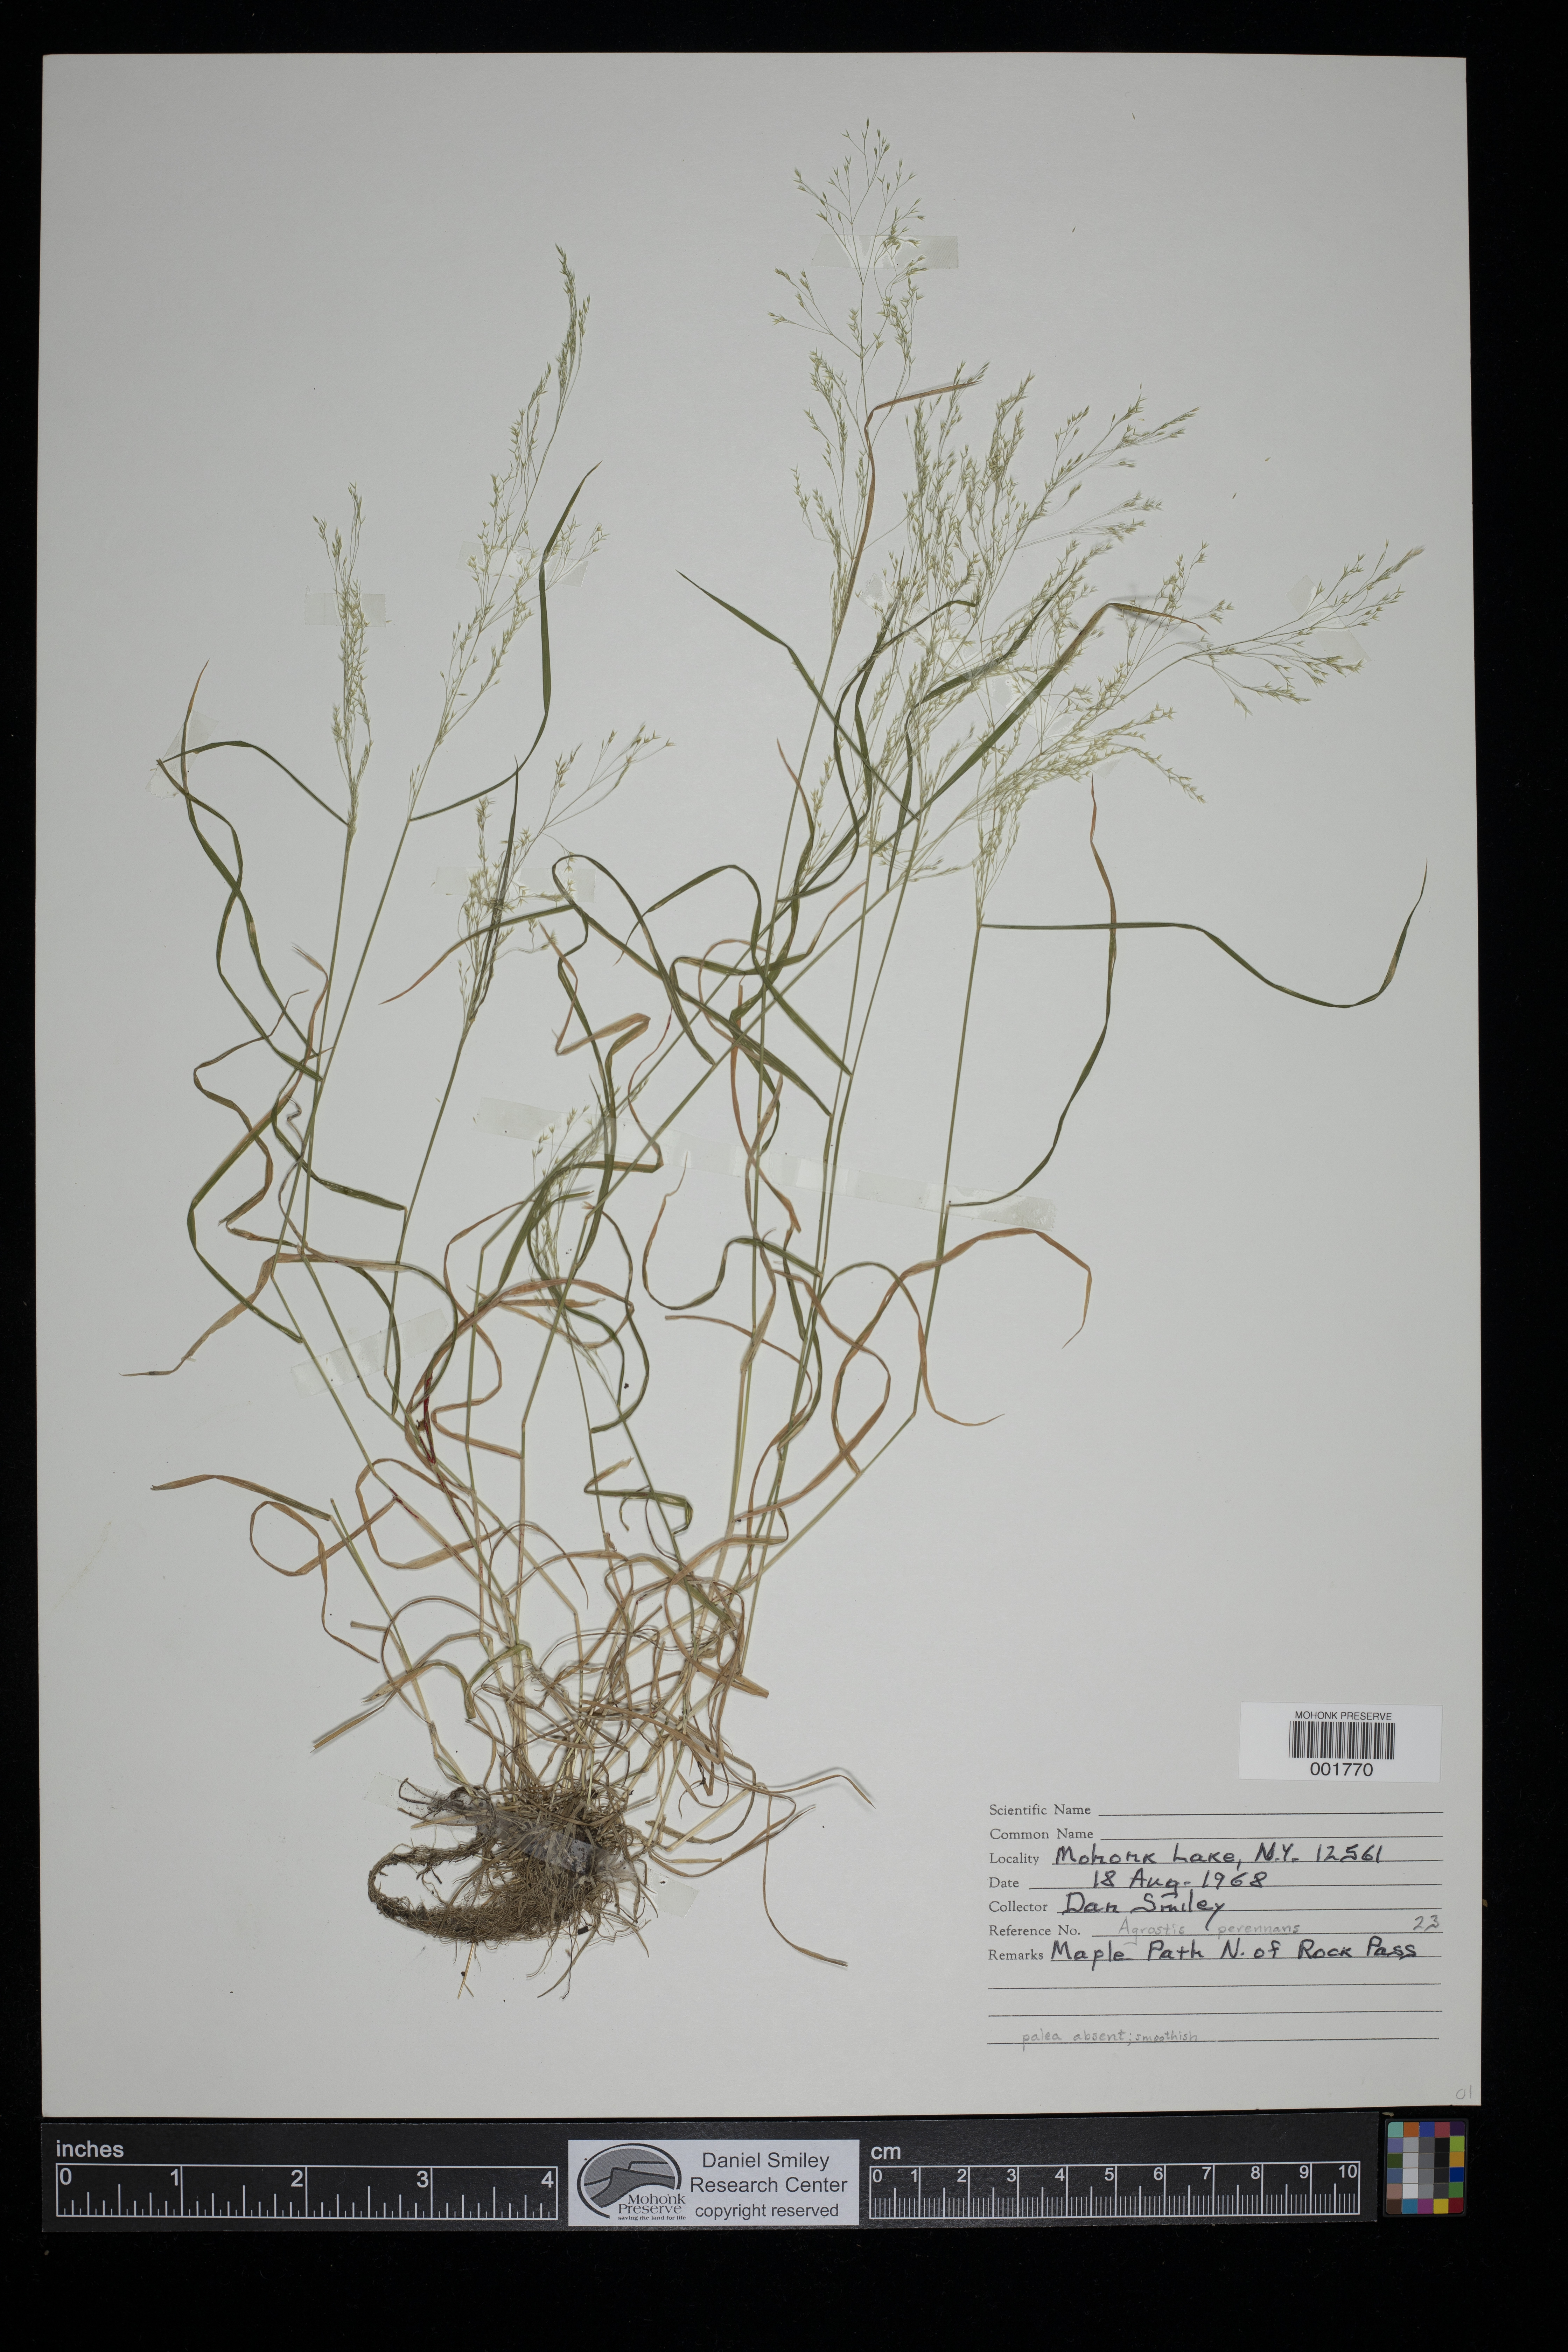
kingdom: Plantae
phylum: Tracheophyta
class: Liliopsida
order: Poales
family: Poaceae
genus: Agrostis
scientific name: Agrostis perennans
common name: Autumn bent
